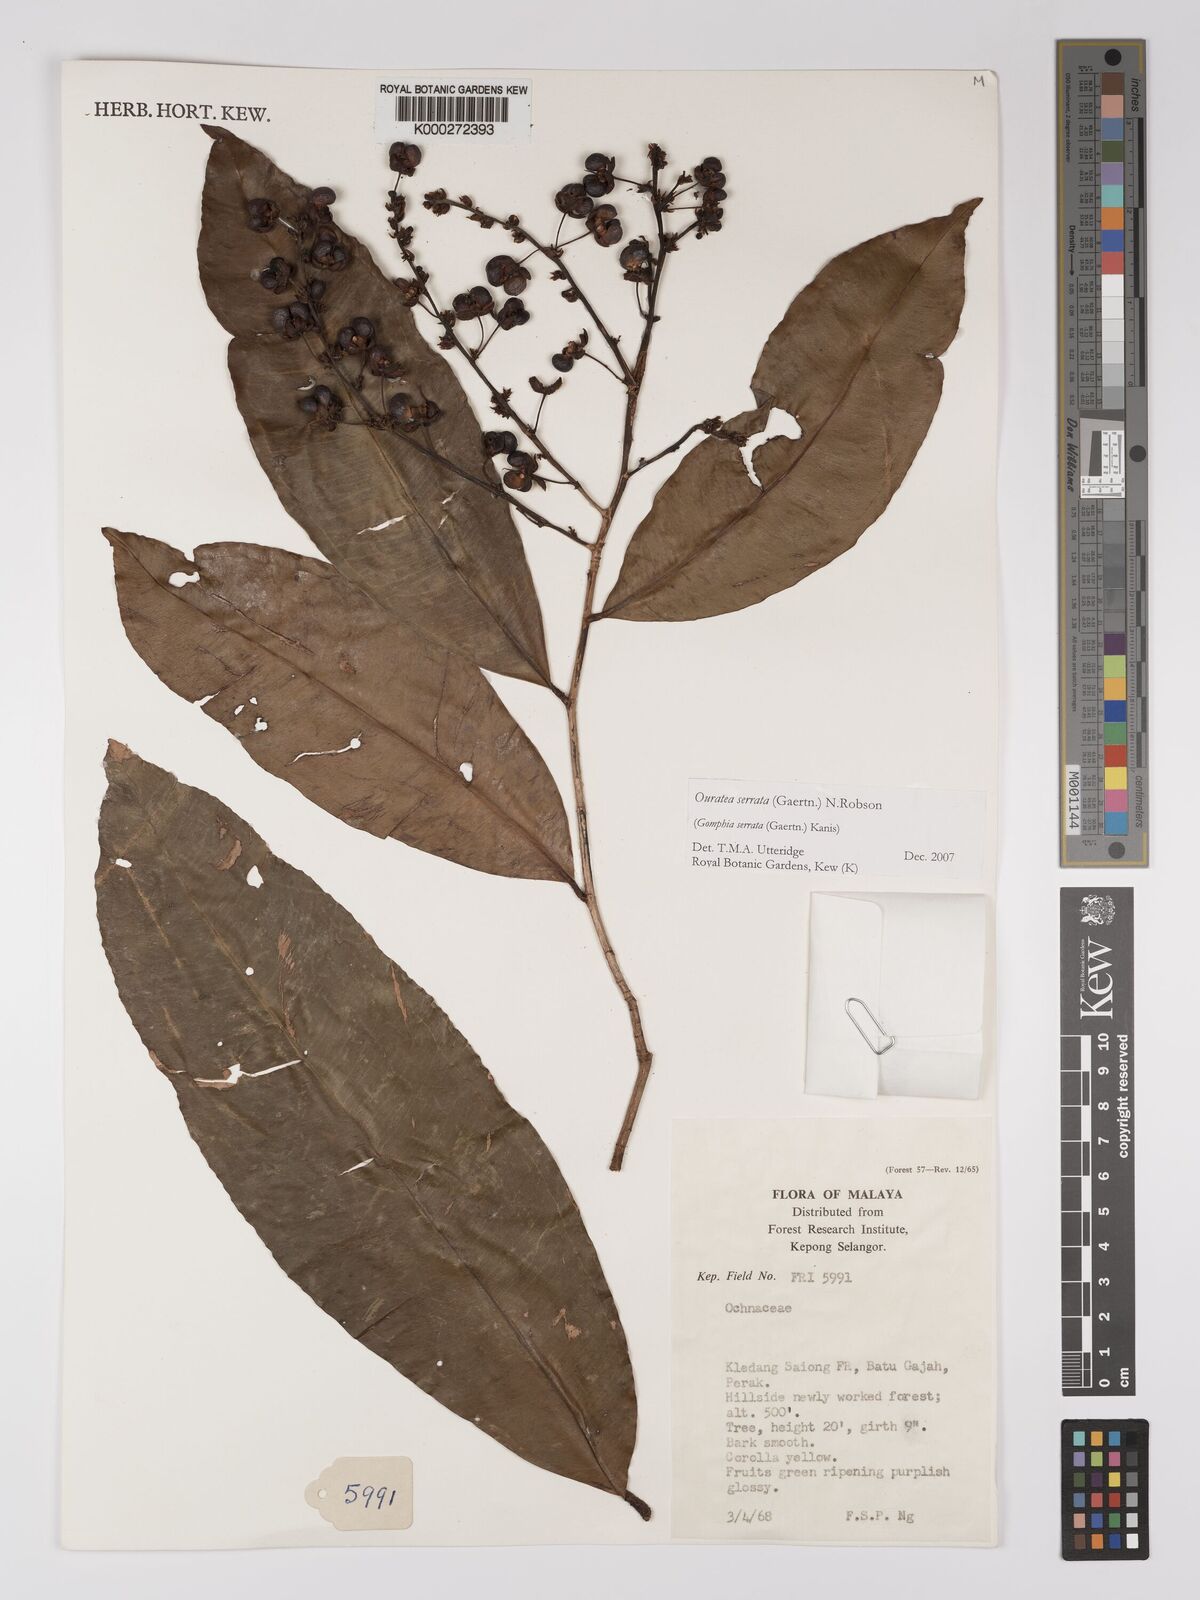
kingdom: Plantae
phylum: Tracheophyta
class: Magnoliopsida
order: Malpighiales
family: Ochnaceae
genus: Gomphia
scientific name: Gomphia serrata
